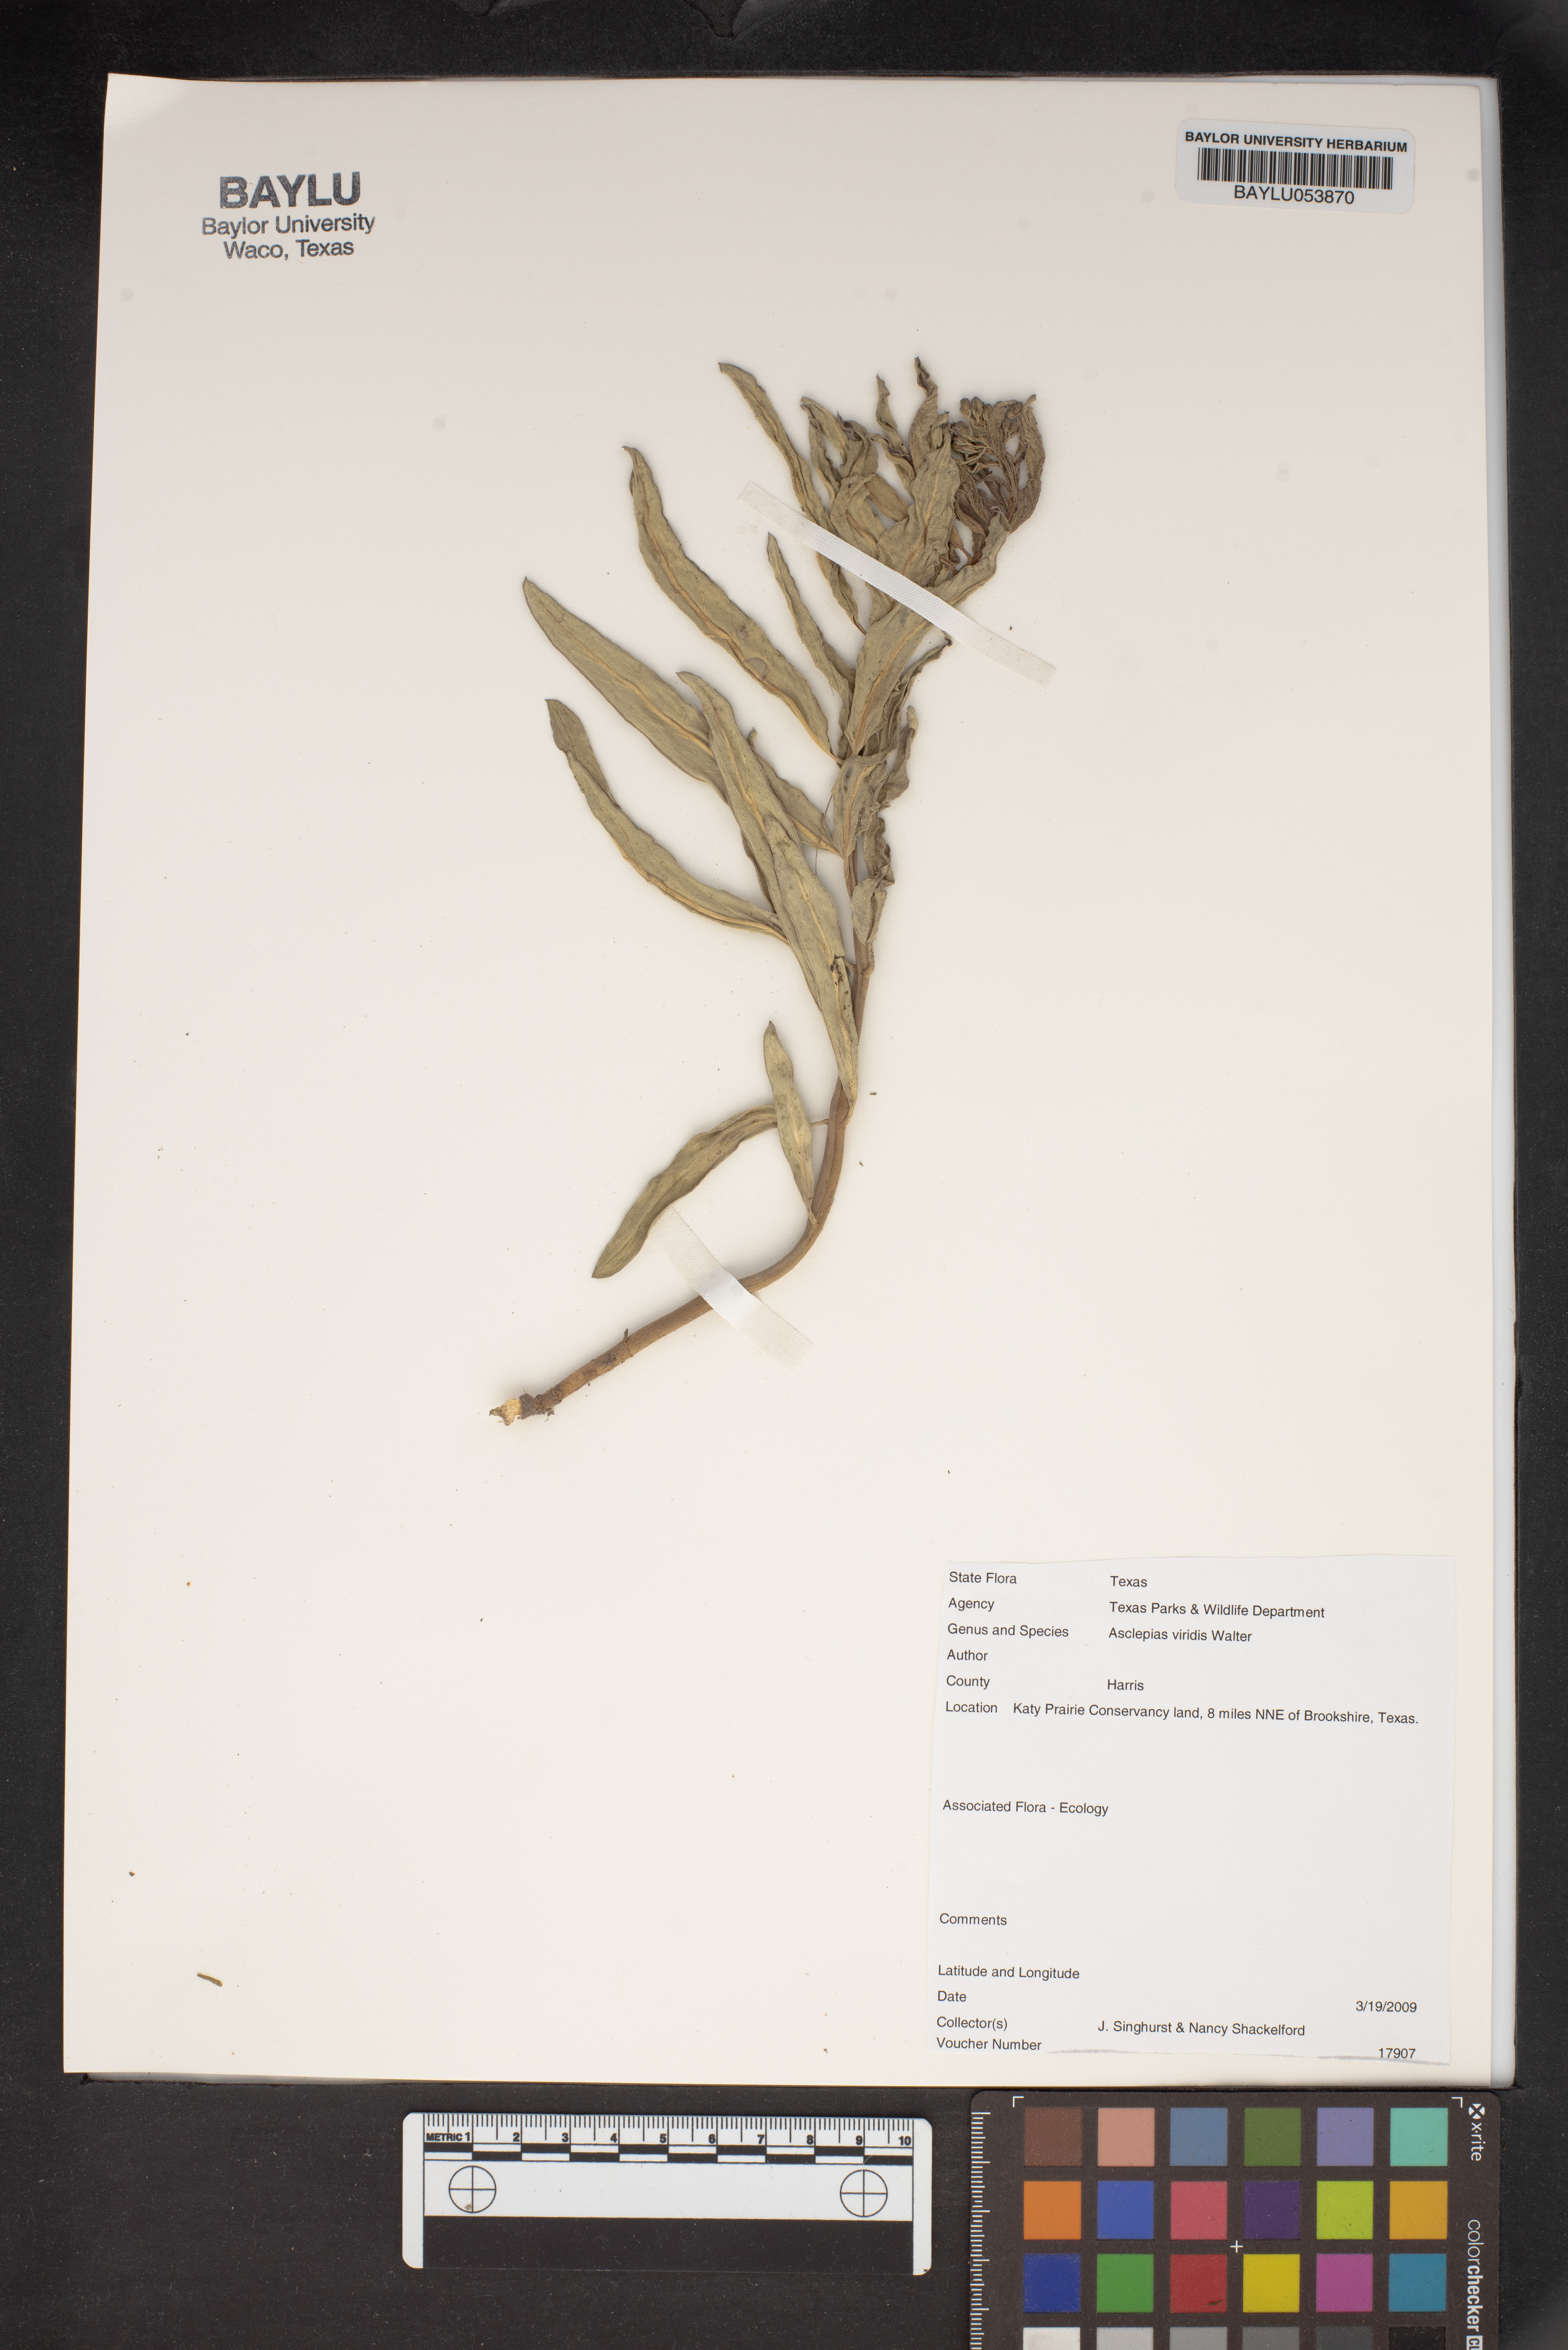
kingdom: Plantae
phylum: Tracheophyta
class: Magnoliopsida
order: Gentianales
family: Apocynaceae
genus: Asclepias
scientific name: Asclepias viridis
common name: Antelope-horns
